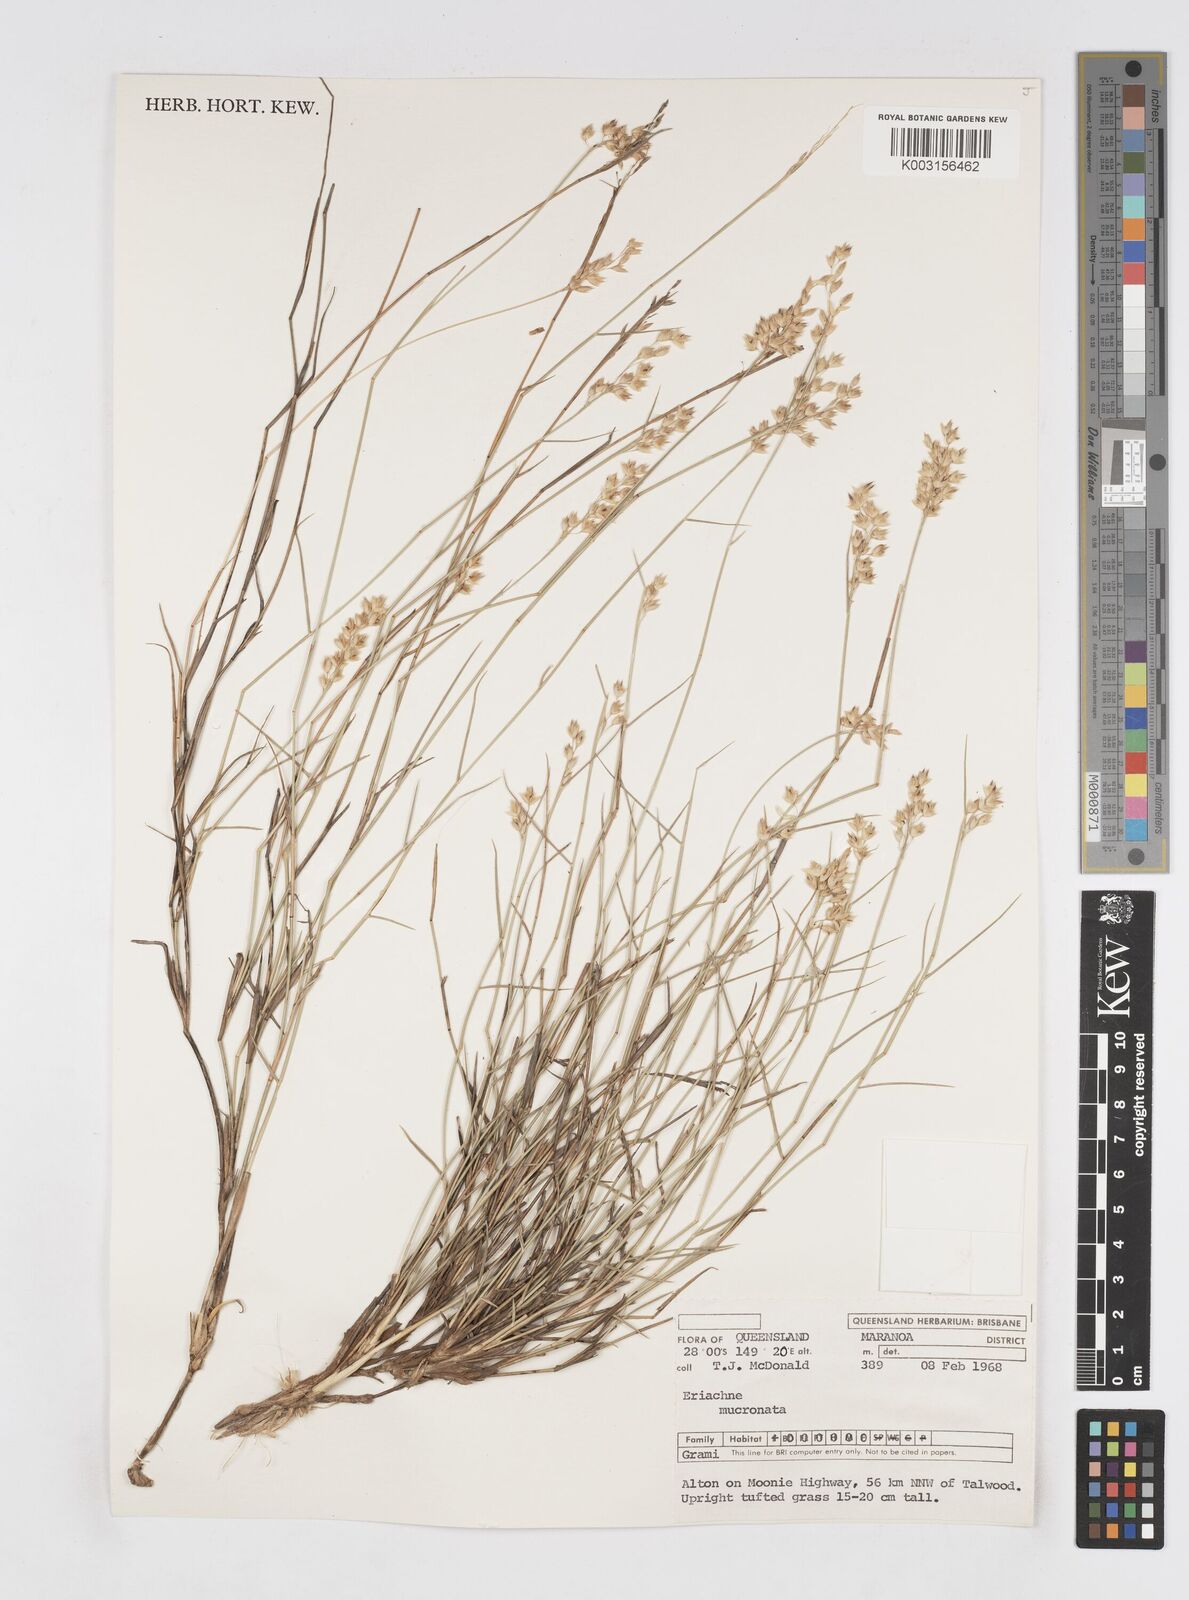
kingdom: Plantae
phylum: Tracheophyta
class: Liliopsida
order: Poales
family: Poaceae
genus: Eriachne
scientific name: Eriachne mucronata
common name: Mountain wanderrie grass
